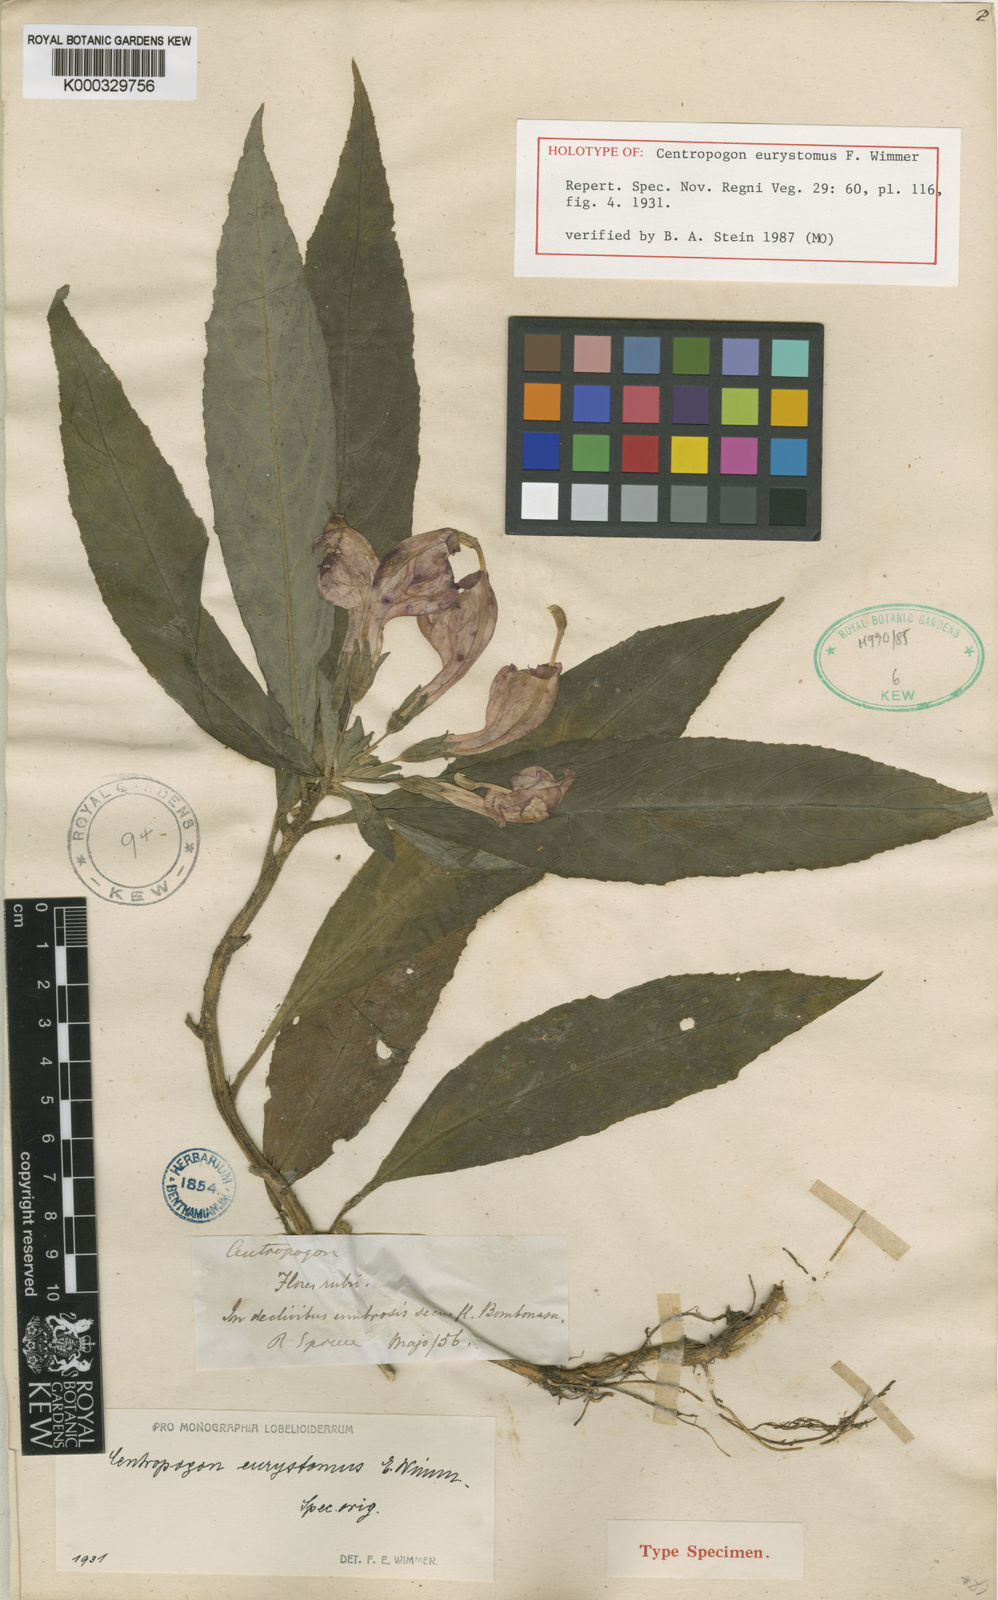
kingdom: Plantae
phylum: Tracheophyta
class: Magnoliopsida
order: Asterales
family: Campanulaceae
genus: Centropogon
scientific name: Centropogon eurystomus
